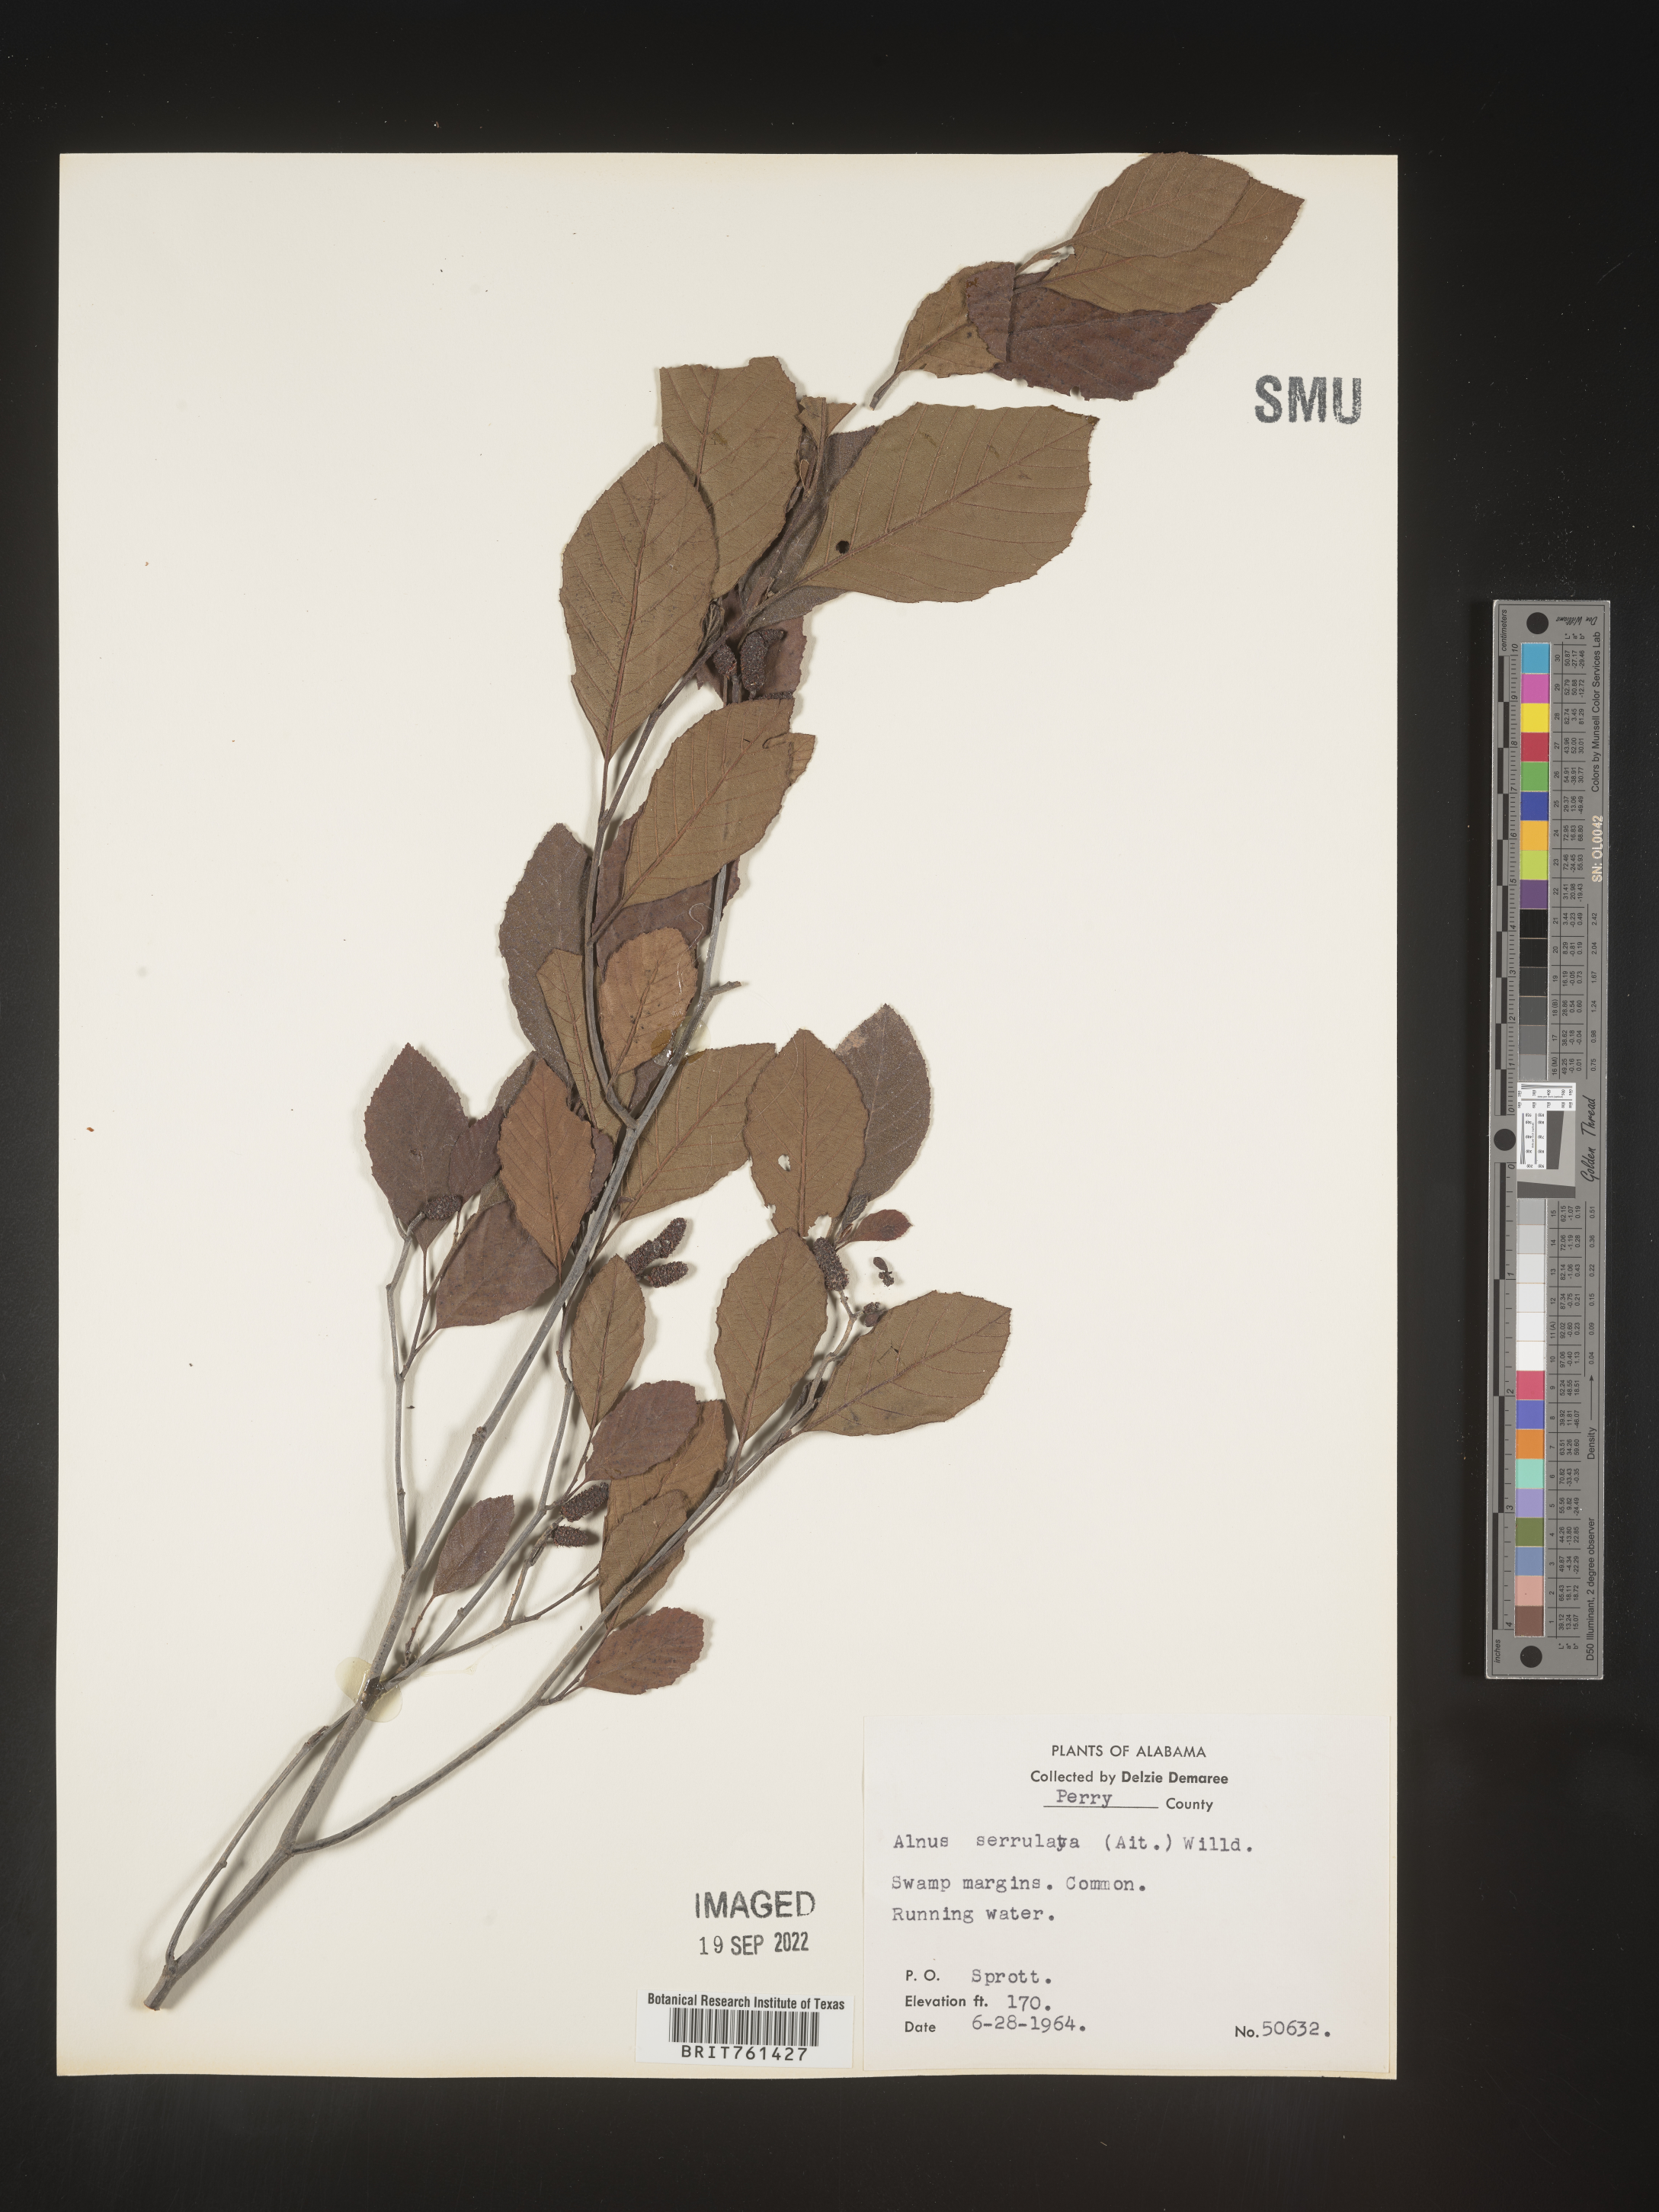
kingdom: Plantae
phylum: Tracheophyta
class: Magnoliopsida
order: Fagales
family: Betulaceae
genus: Alnus
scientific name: Alnus serrulata
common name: Hazel alder
